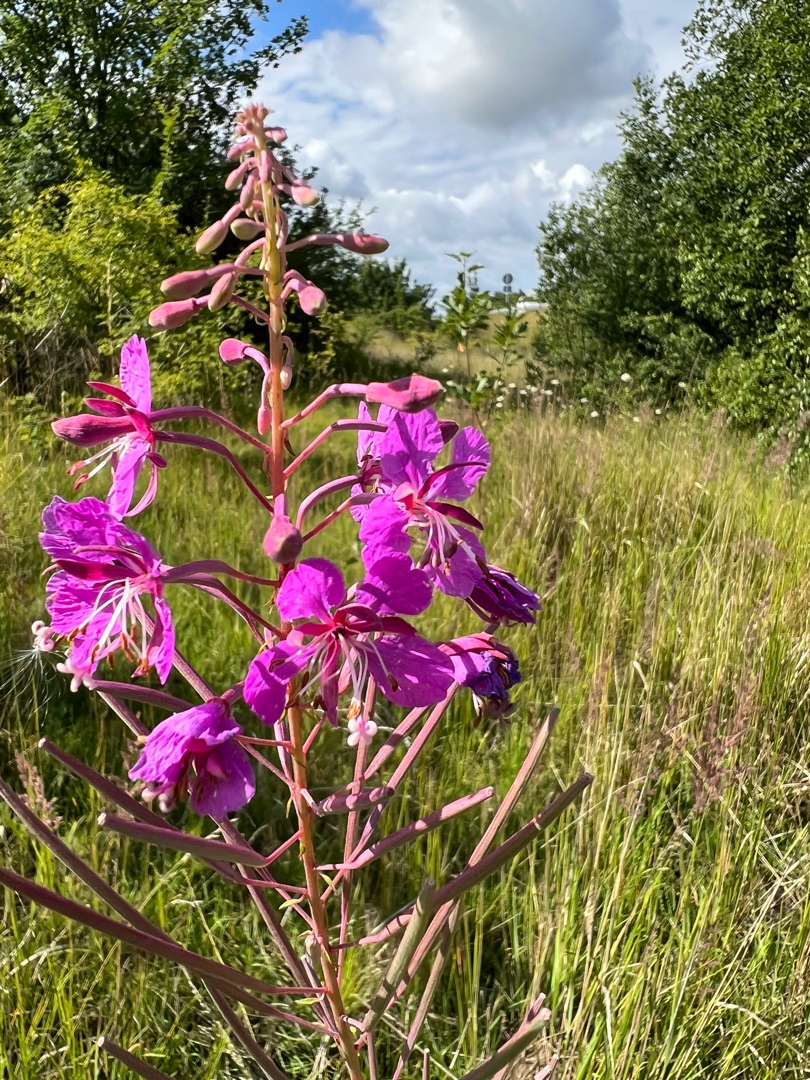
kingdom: Plantae
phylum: Tracheophyta
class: Magnoliopsida
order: Myrtales
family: Onagraceae
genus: Chamaenerion
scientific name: Chamaenerion angustifolium
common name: Gederams
